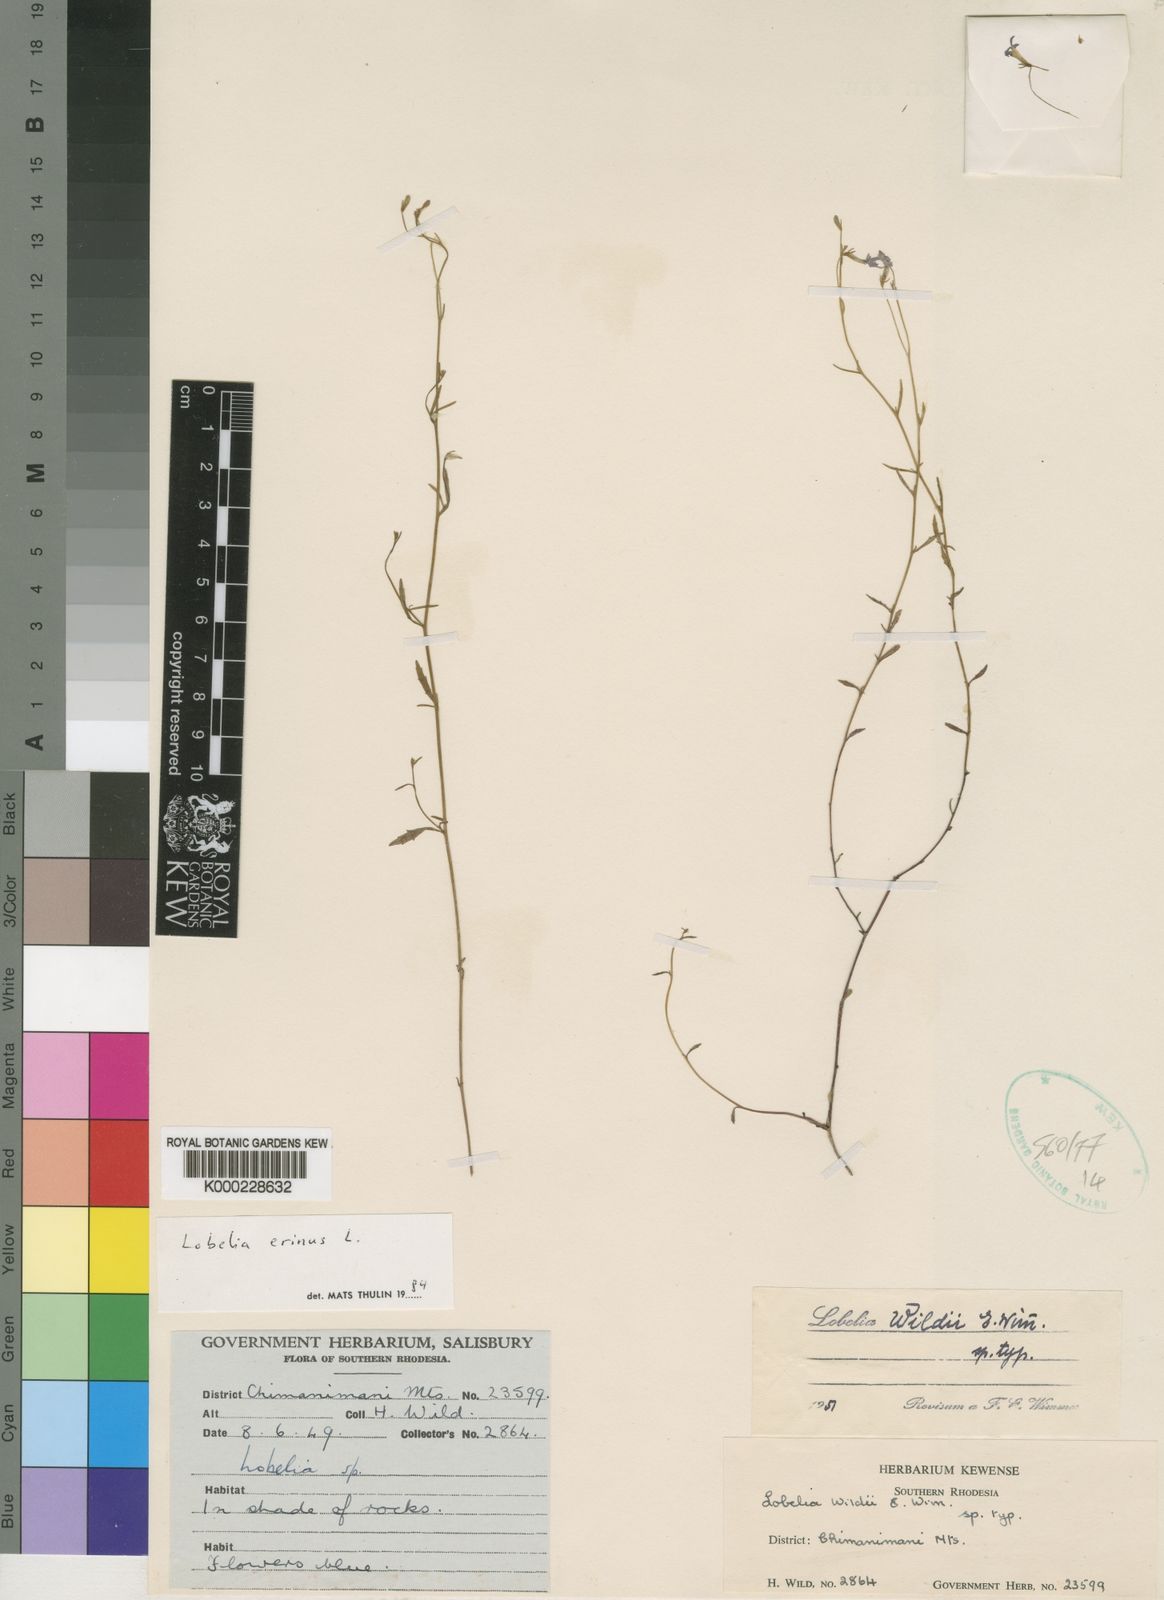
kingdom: Plantae
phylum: Tracheophyta
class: Magnoliopsida
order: Asterales
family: Campanulaceae
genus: Lobelia
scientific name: Lobelia erinus
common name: Edging lobelia
